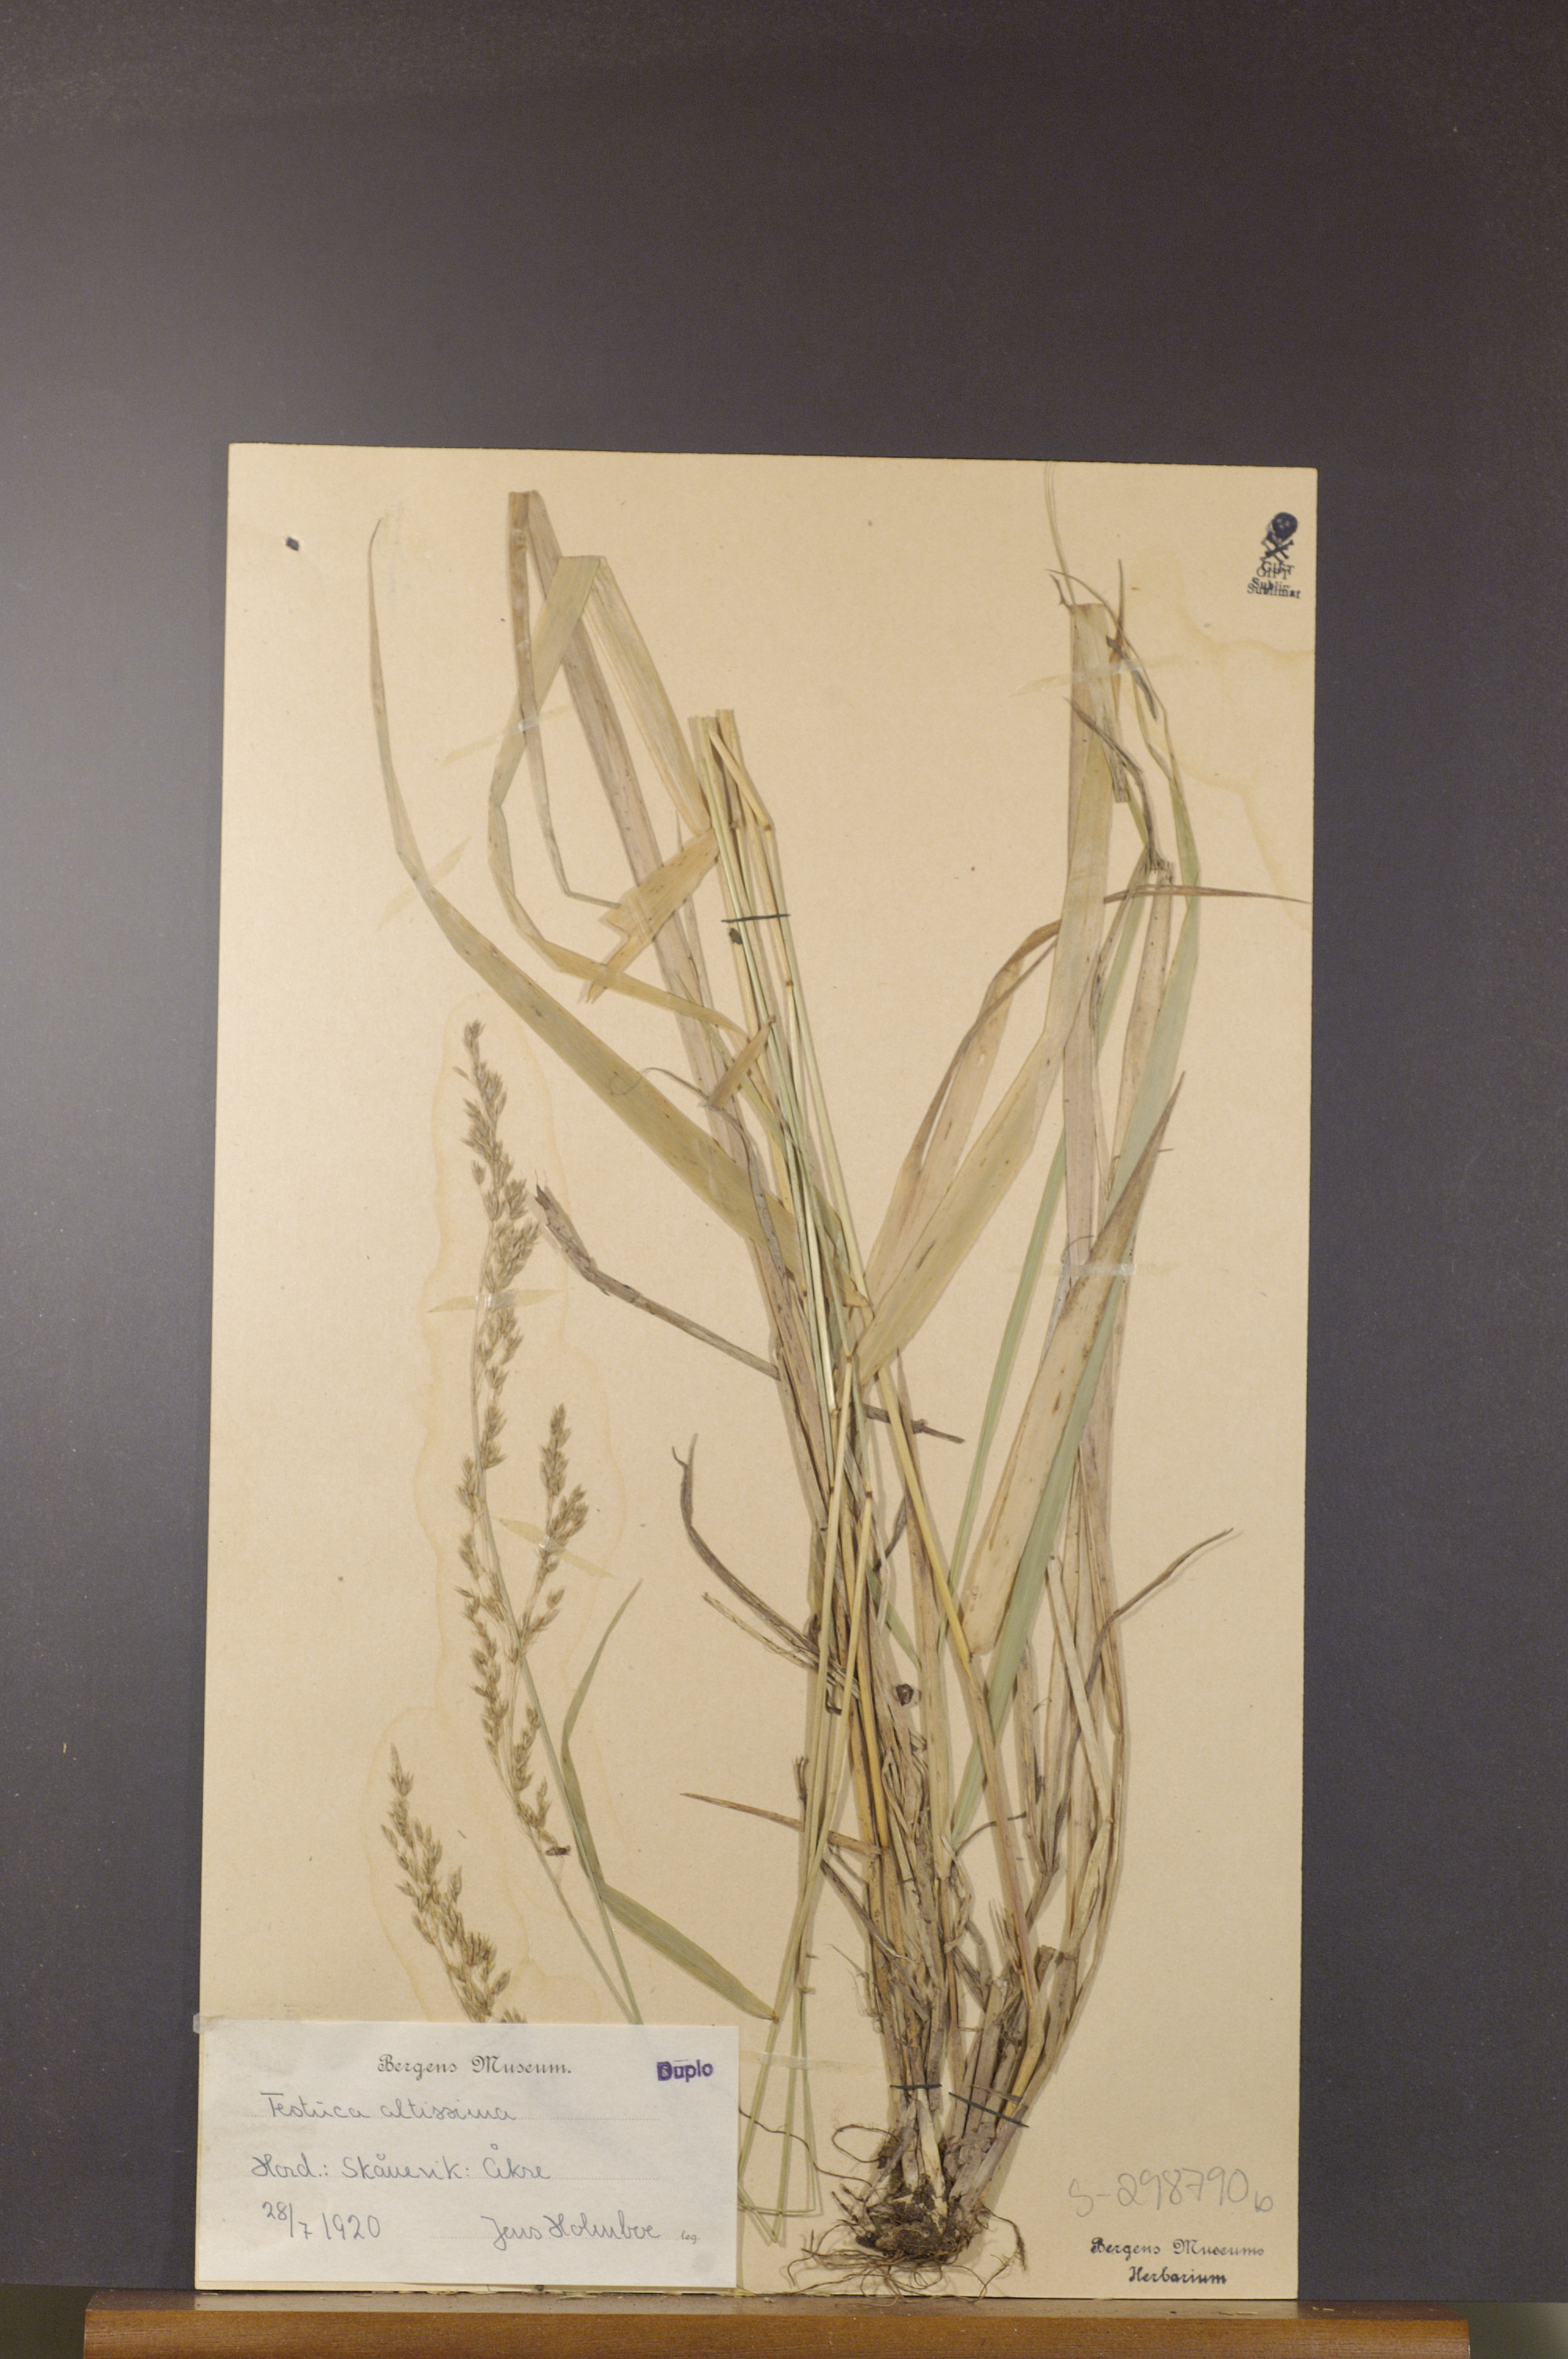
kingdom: Plantae
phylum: Tracheophyta
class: Liliopsida
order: Poales
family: Poaceae
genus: Festuca
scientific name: Festuca altissima
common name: Wood fescue
